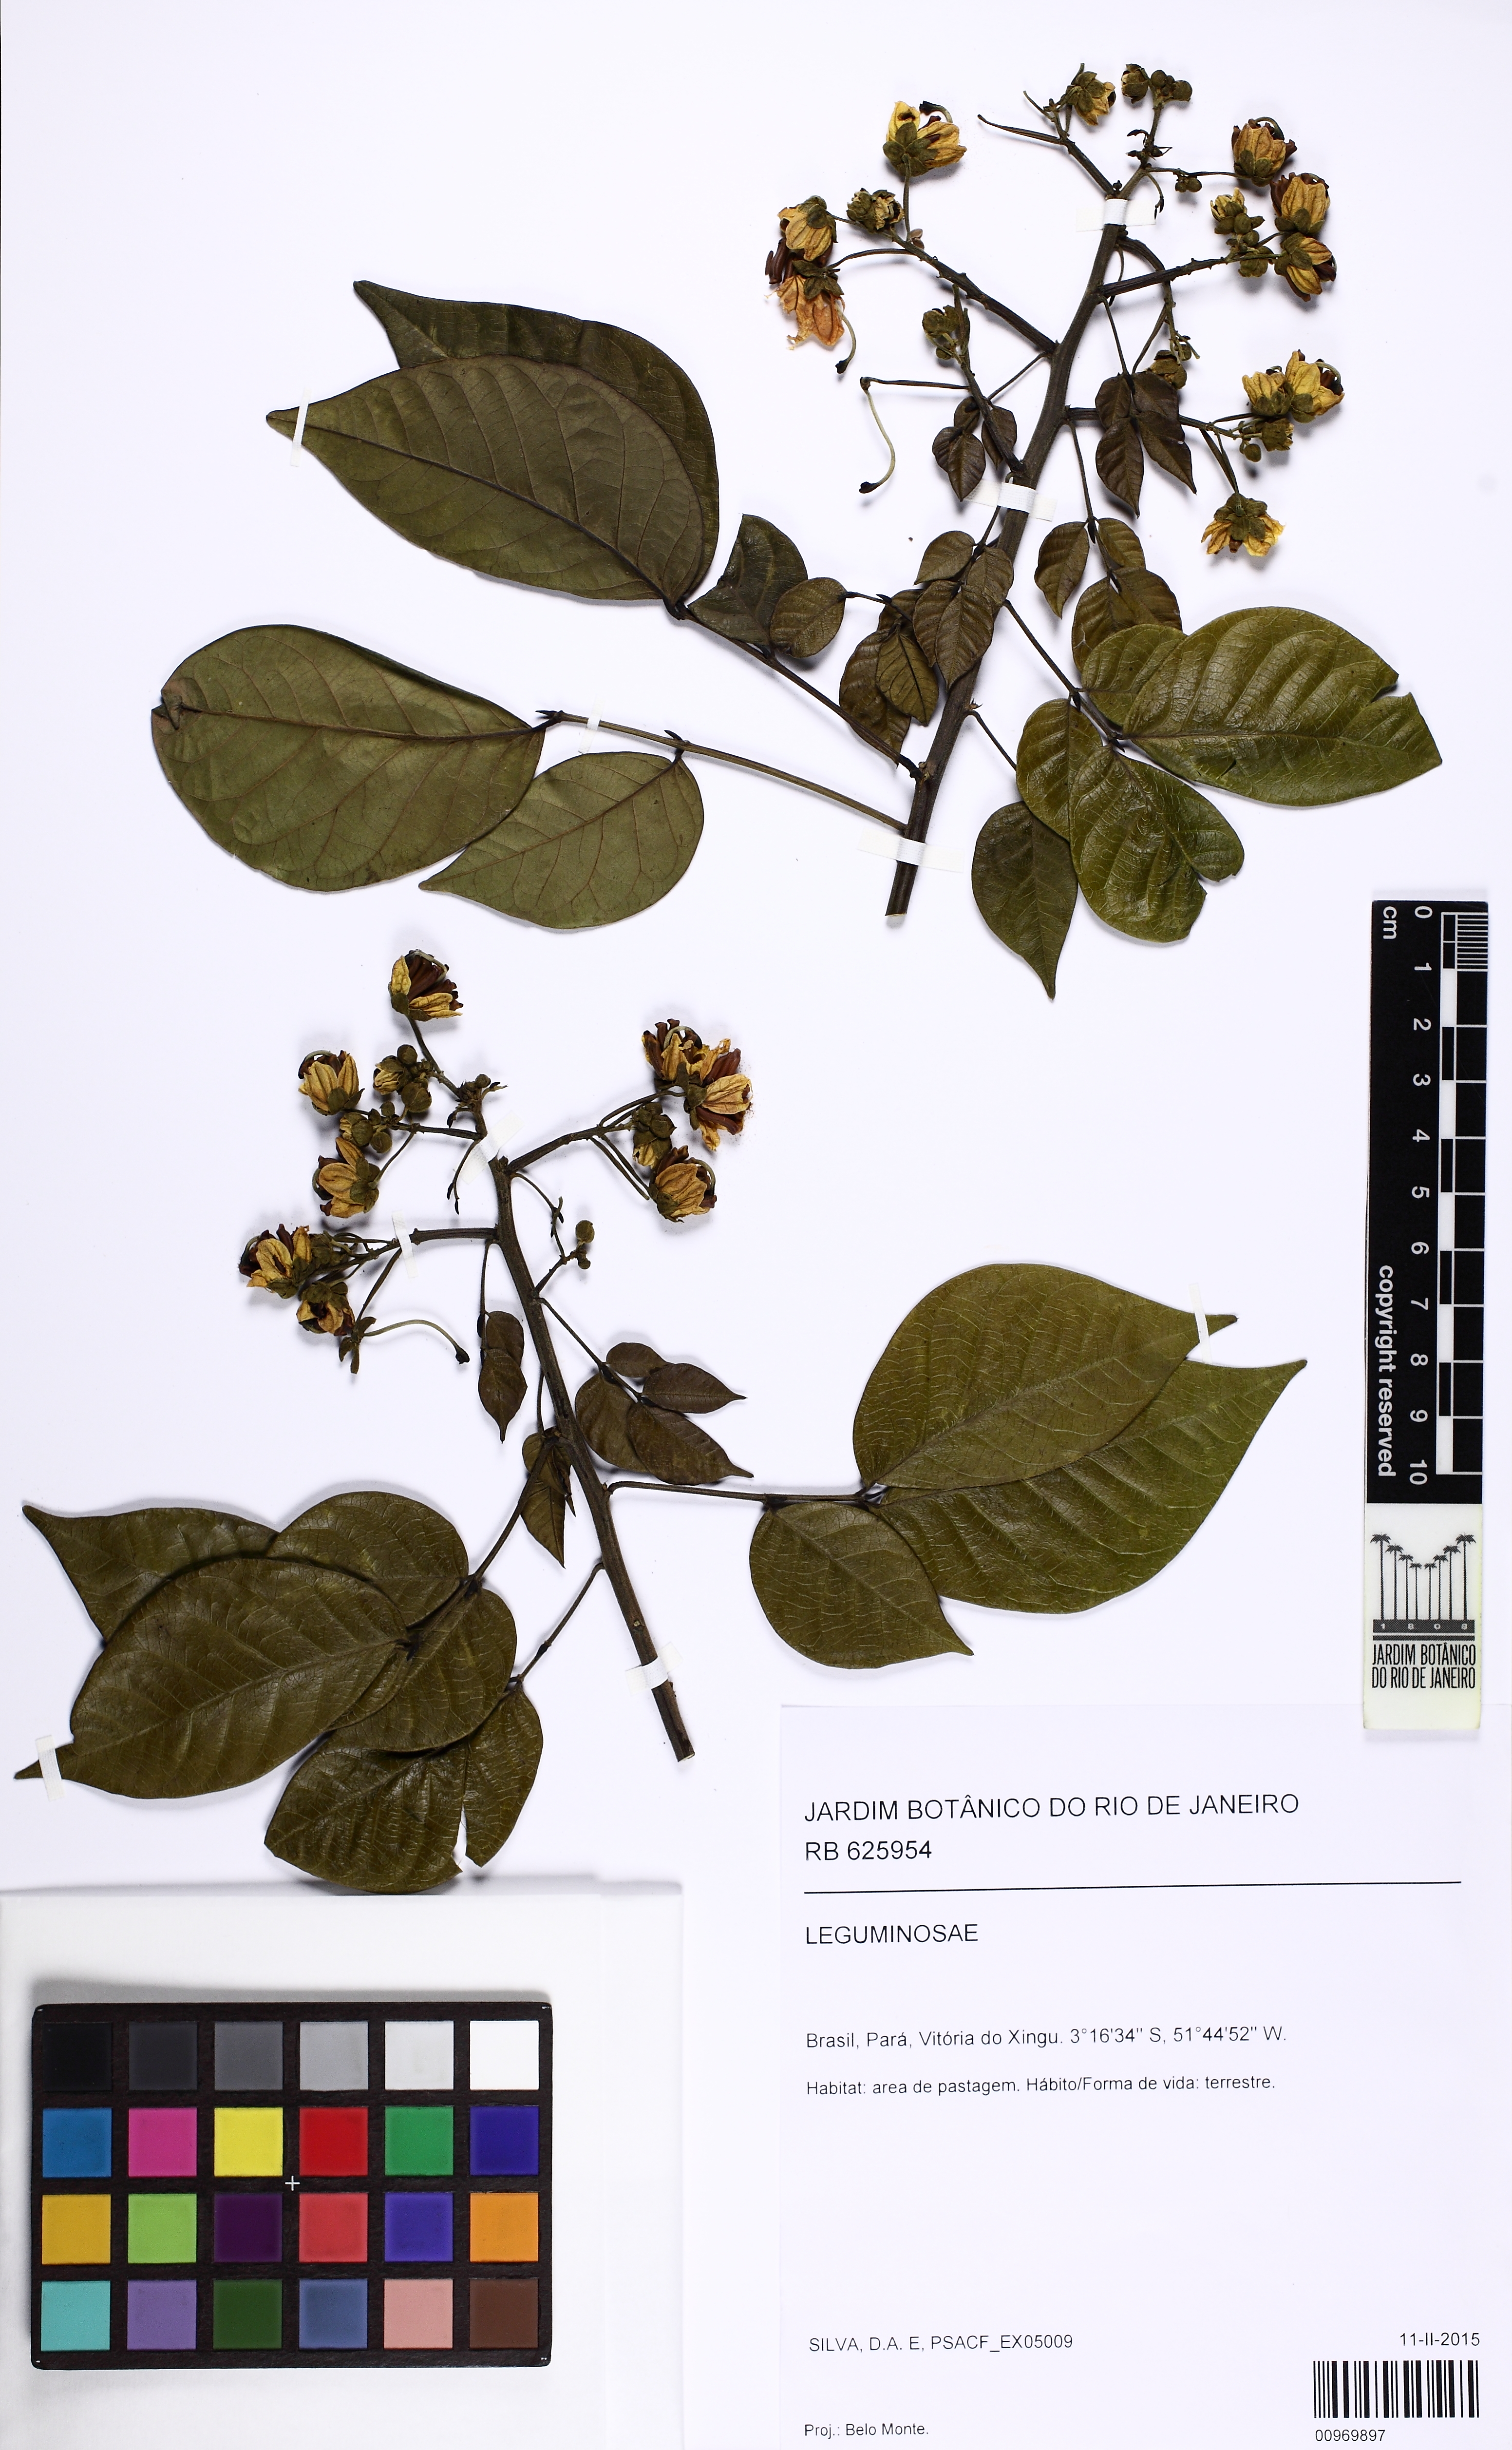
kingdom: Plantae
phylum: Tracheophyta
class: Magnoliopsida
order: Fabales
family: Fabaceae
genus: Senna
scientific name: Senna quinquangulata
